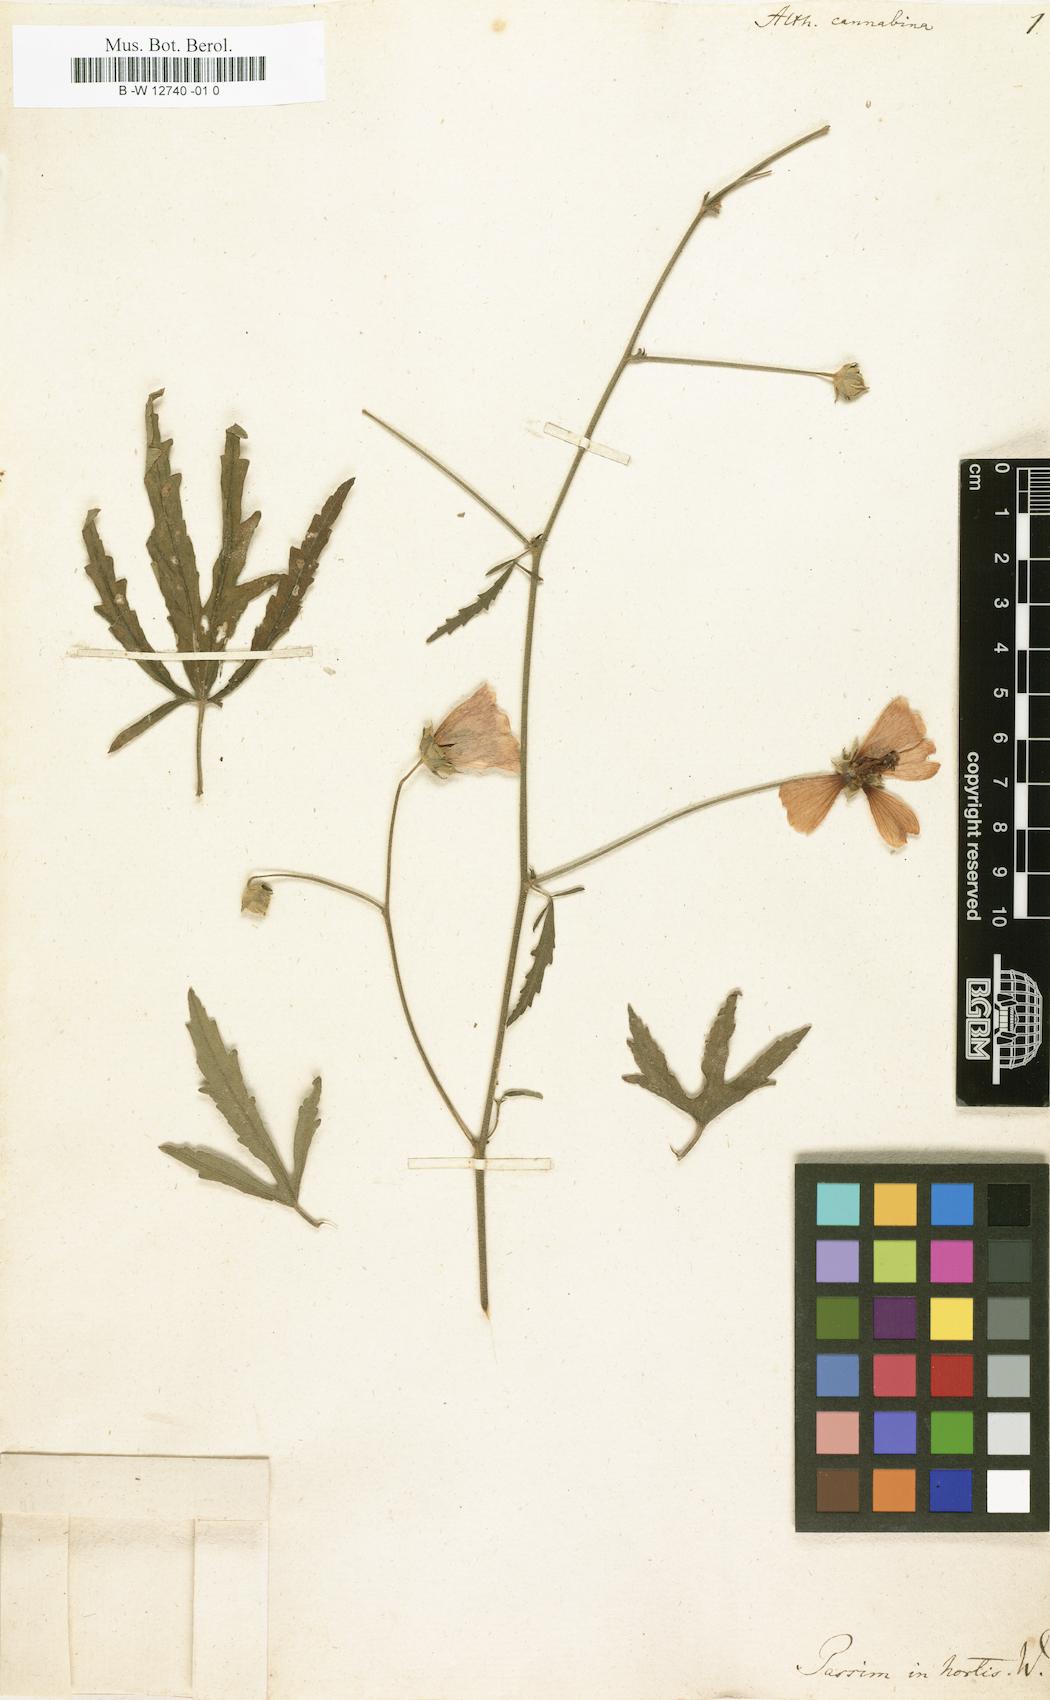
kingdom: Plantae
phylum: Tracheophyta
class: Magnoliopsida
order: Malvales
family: Malvaceae
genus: Althaea
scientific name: Althaea cannabina
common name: Palm-leaf marshmallow
